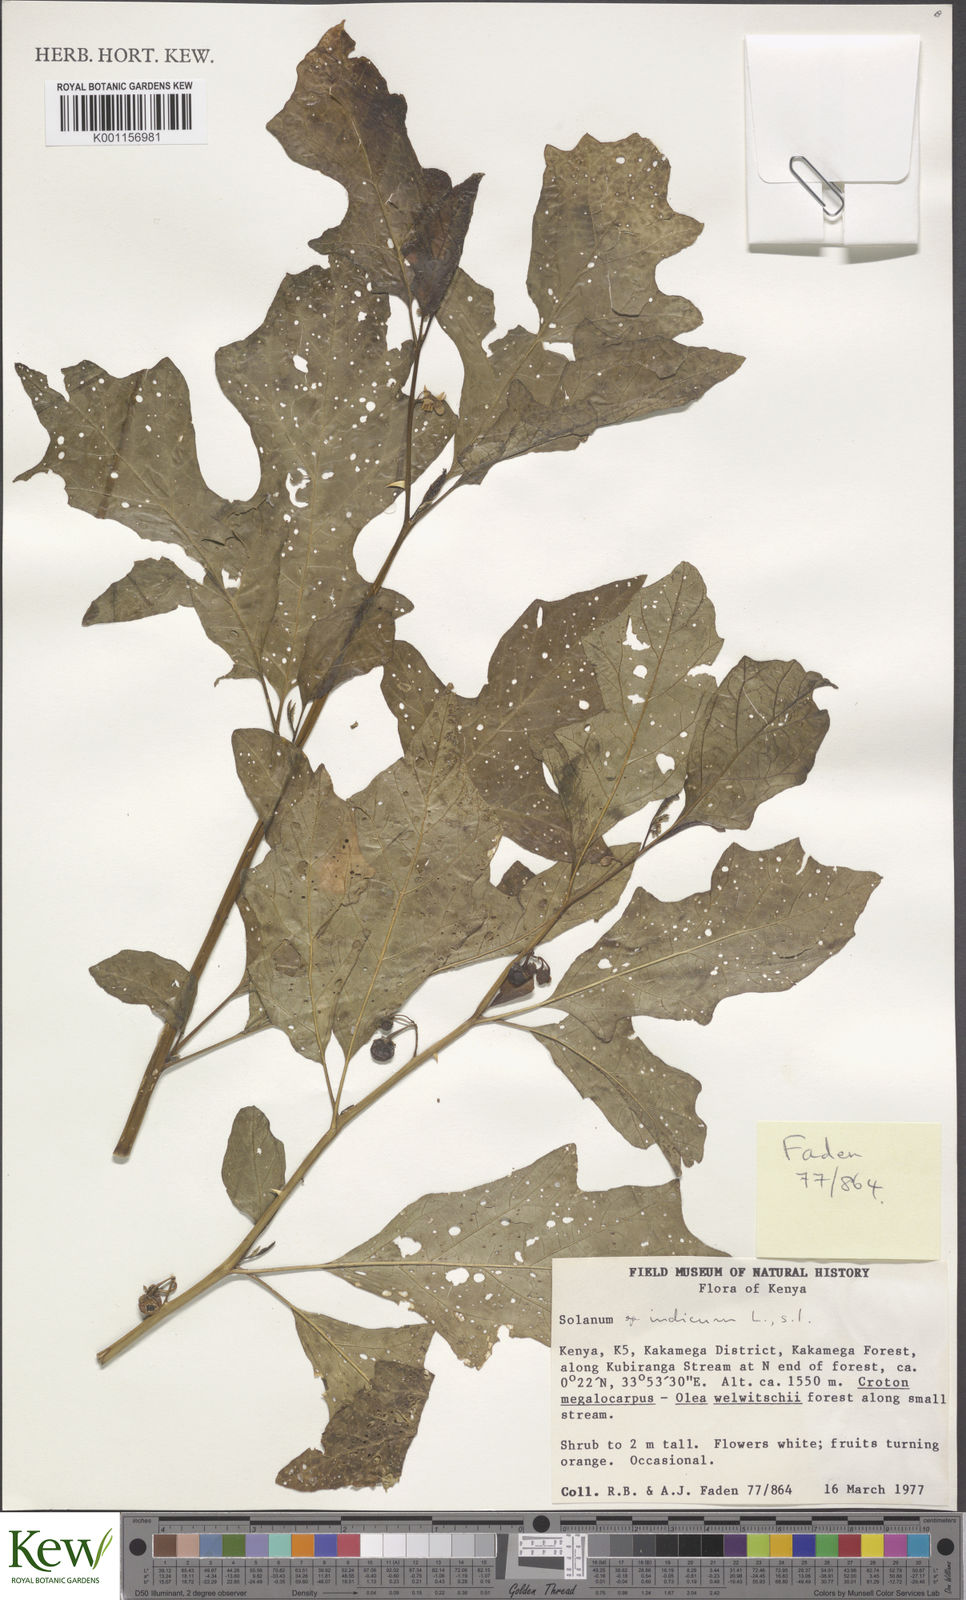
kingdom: Plantae
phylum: Tracheophyta
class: Magnoliopsida
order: Solanales
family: Solanaceae
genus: Solanum
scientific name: Solanum anguivi
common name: Forest bitterberry
